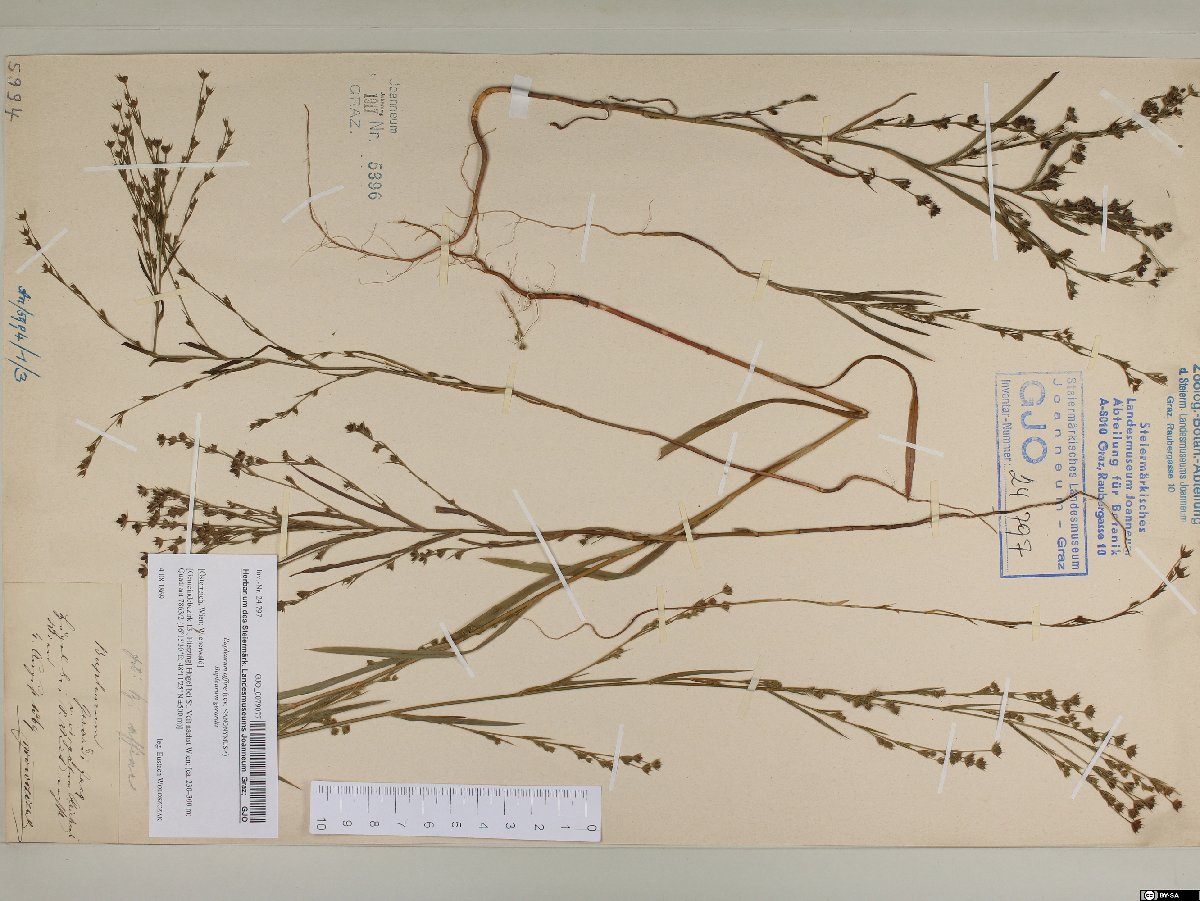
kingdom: Plantae
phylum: Tracheophyta
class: Magnoliopsida
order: Apiales
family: Apiaceae
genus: Bupleurum
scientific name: Bupleurum affine
